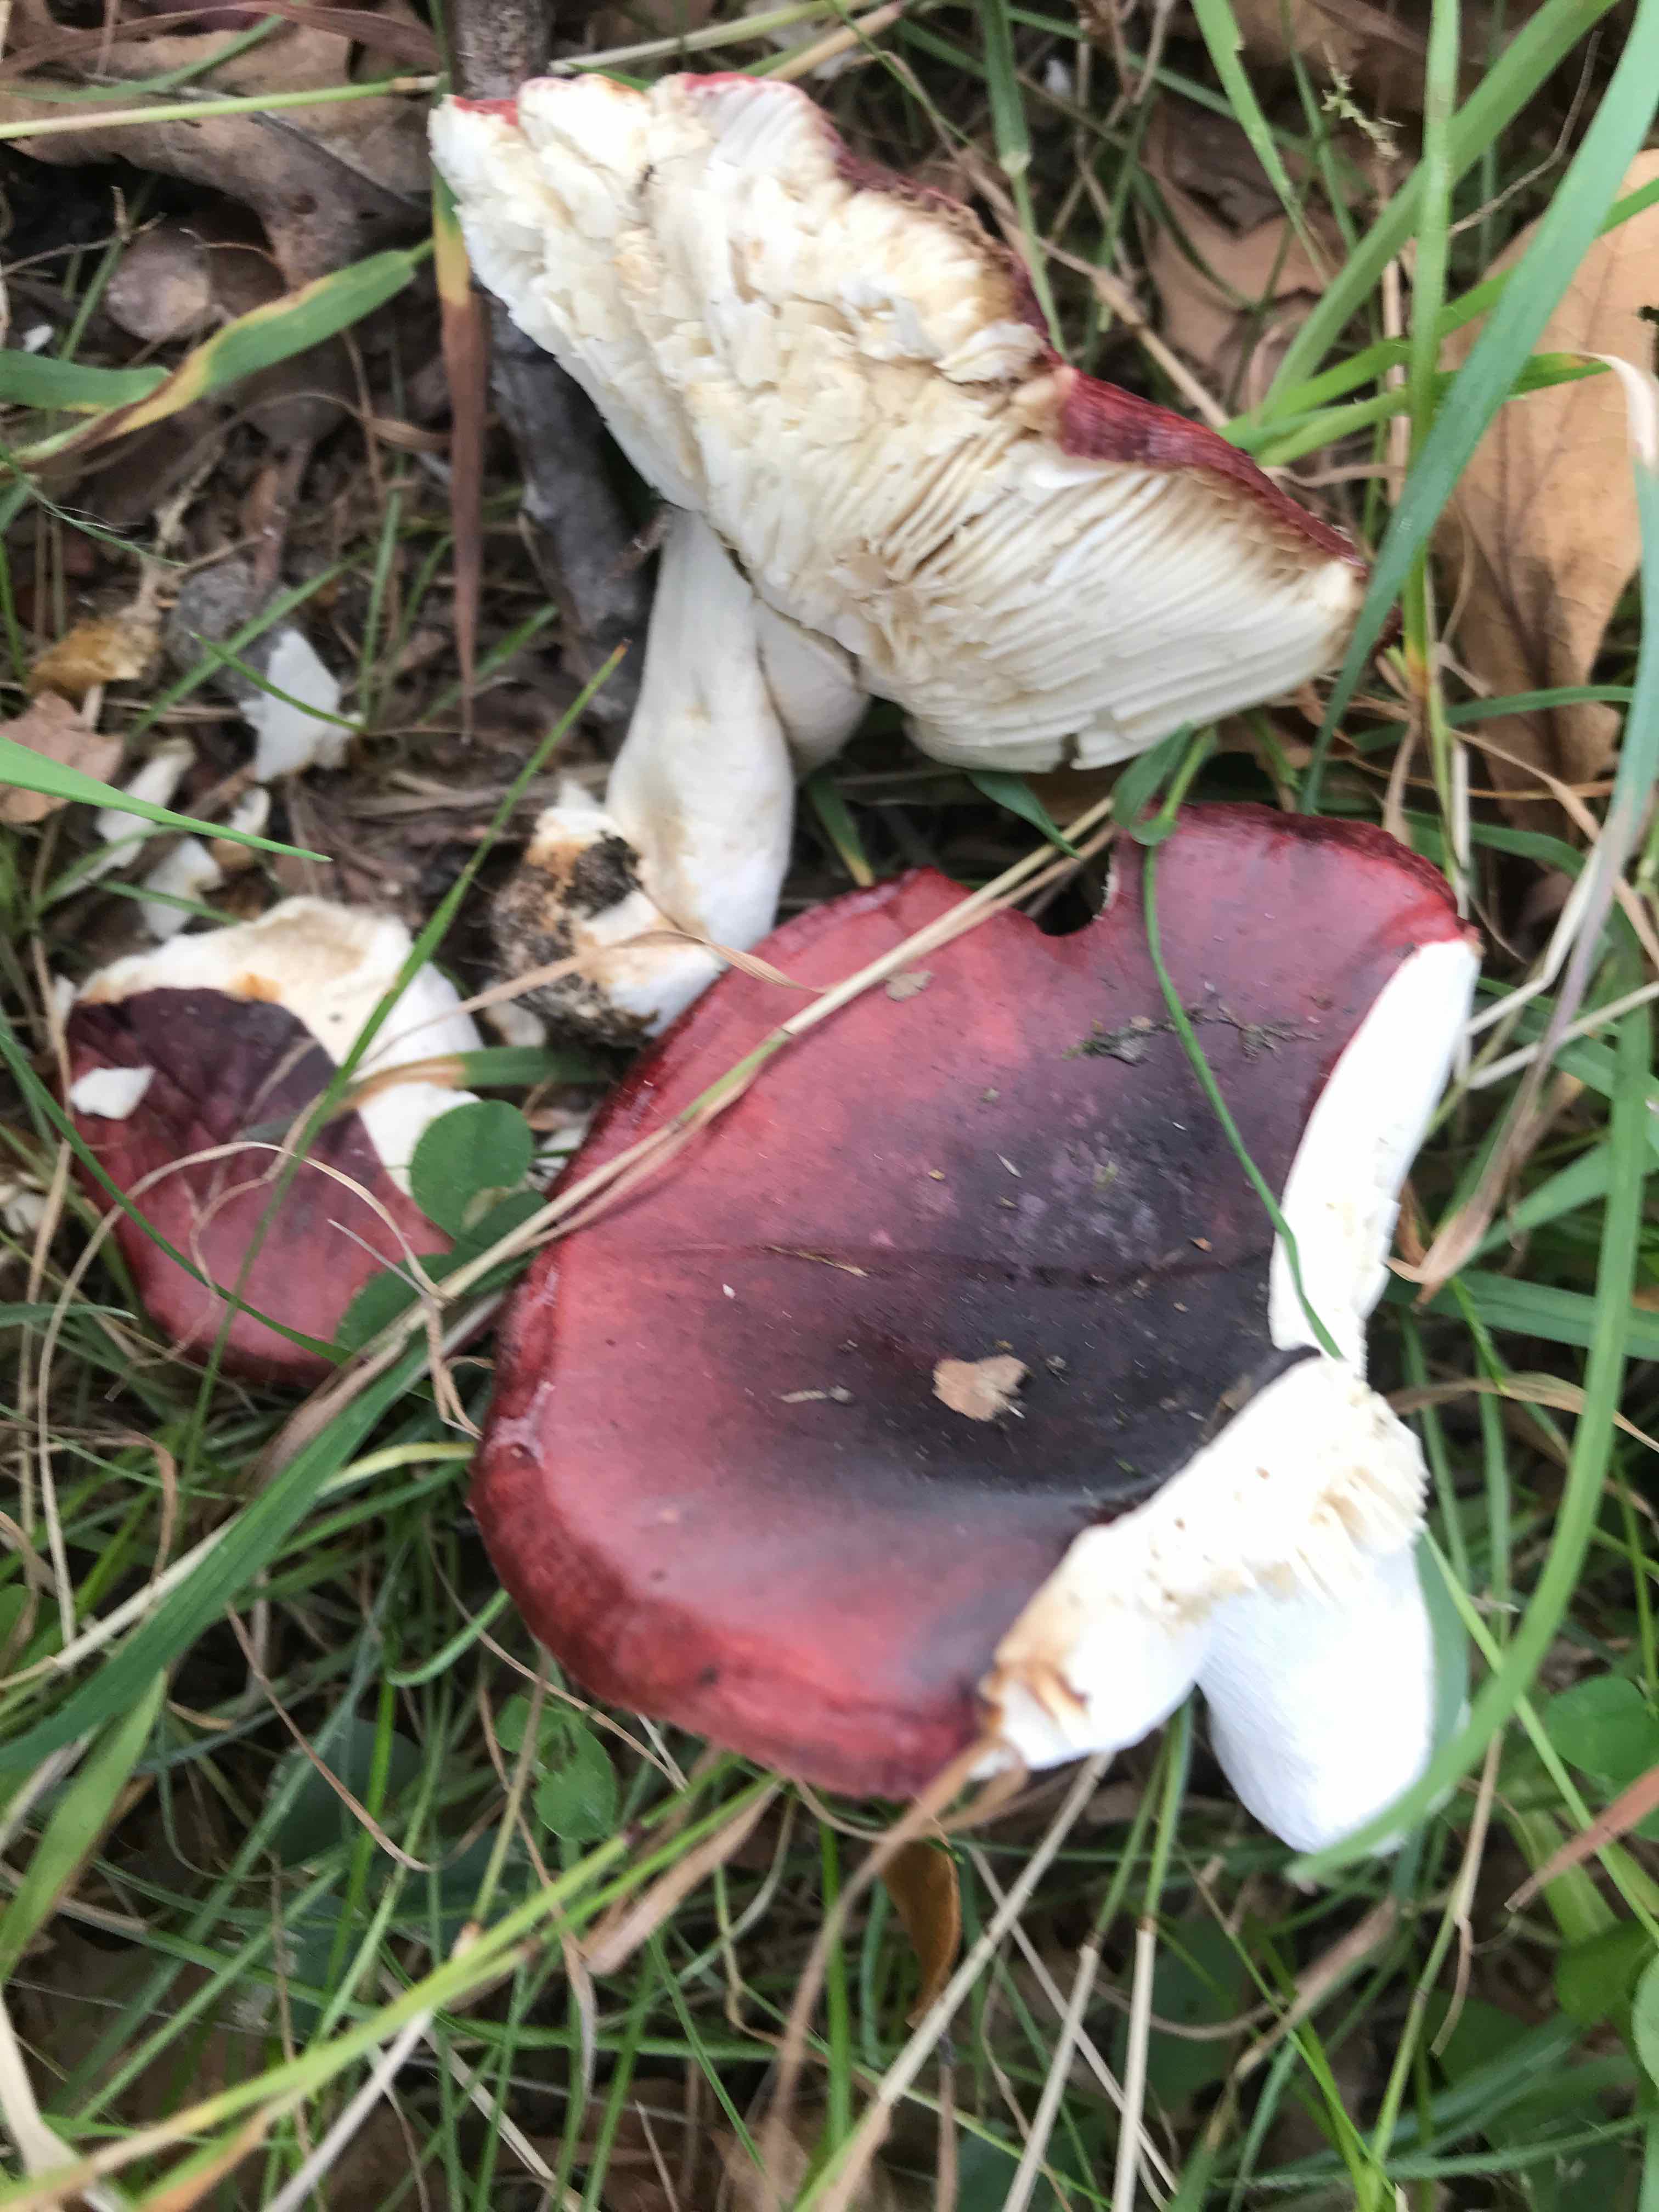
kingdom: Fungi
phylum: Basidiomycota
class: Agaricomycetes
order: Russulales
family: Russulaceae
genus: Russula
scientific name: Russula atropurpurea
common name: purpurbroget skørhat
